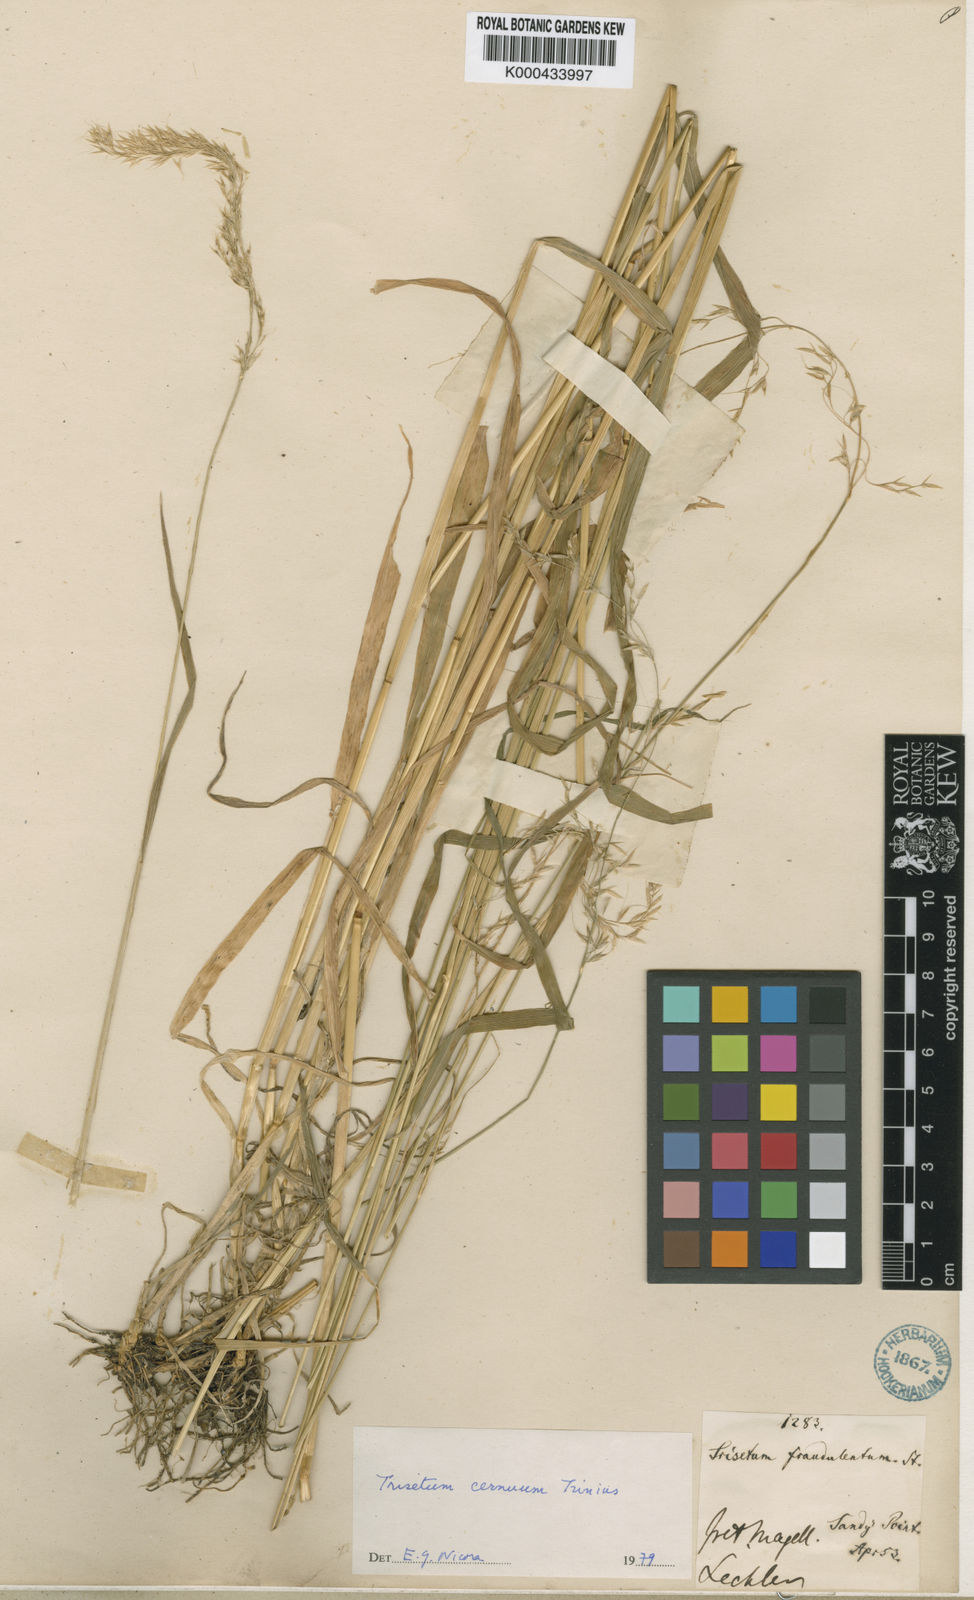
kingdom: Plantae
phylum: Tracheophyta
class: Liliopsida
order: Poales
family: Poaceae
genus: Graphephorum
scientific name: Graphephorum cernuum
